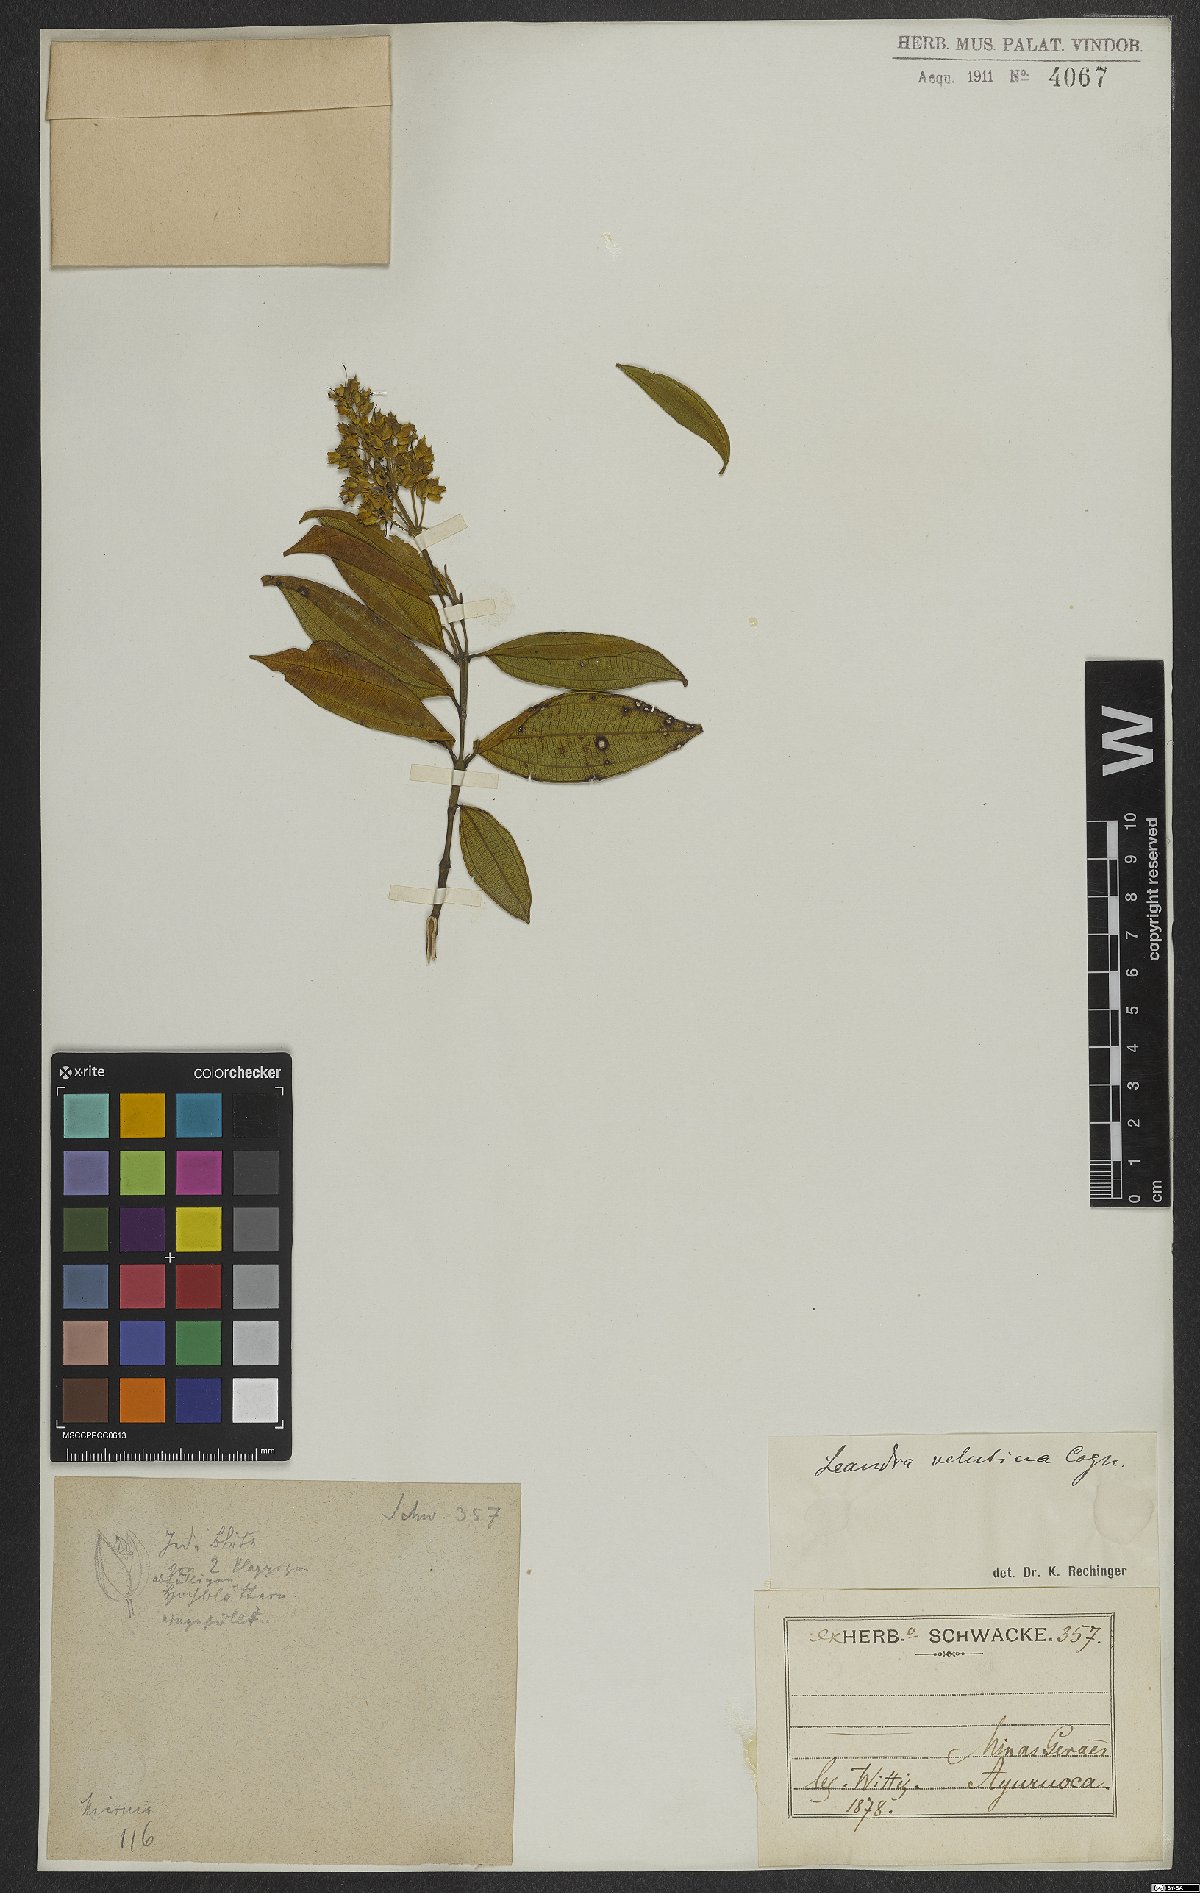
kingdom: Plantae
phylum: Tracheophyta
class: Magnoliopsida
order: Myrtales
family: Melastomataceae
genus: Miconia
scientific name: Miconia leavelutina
